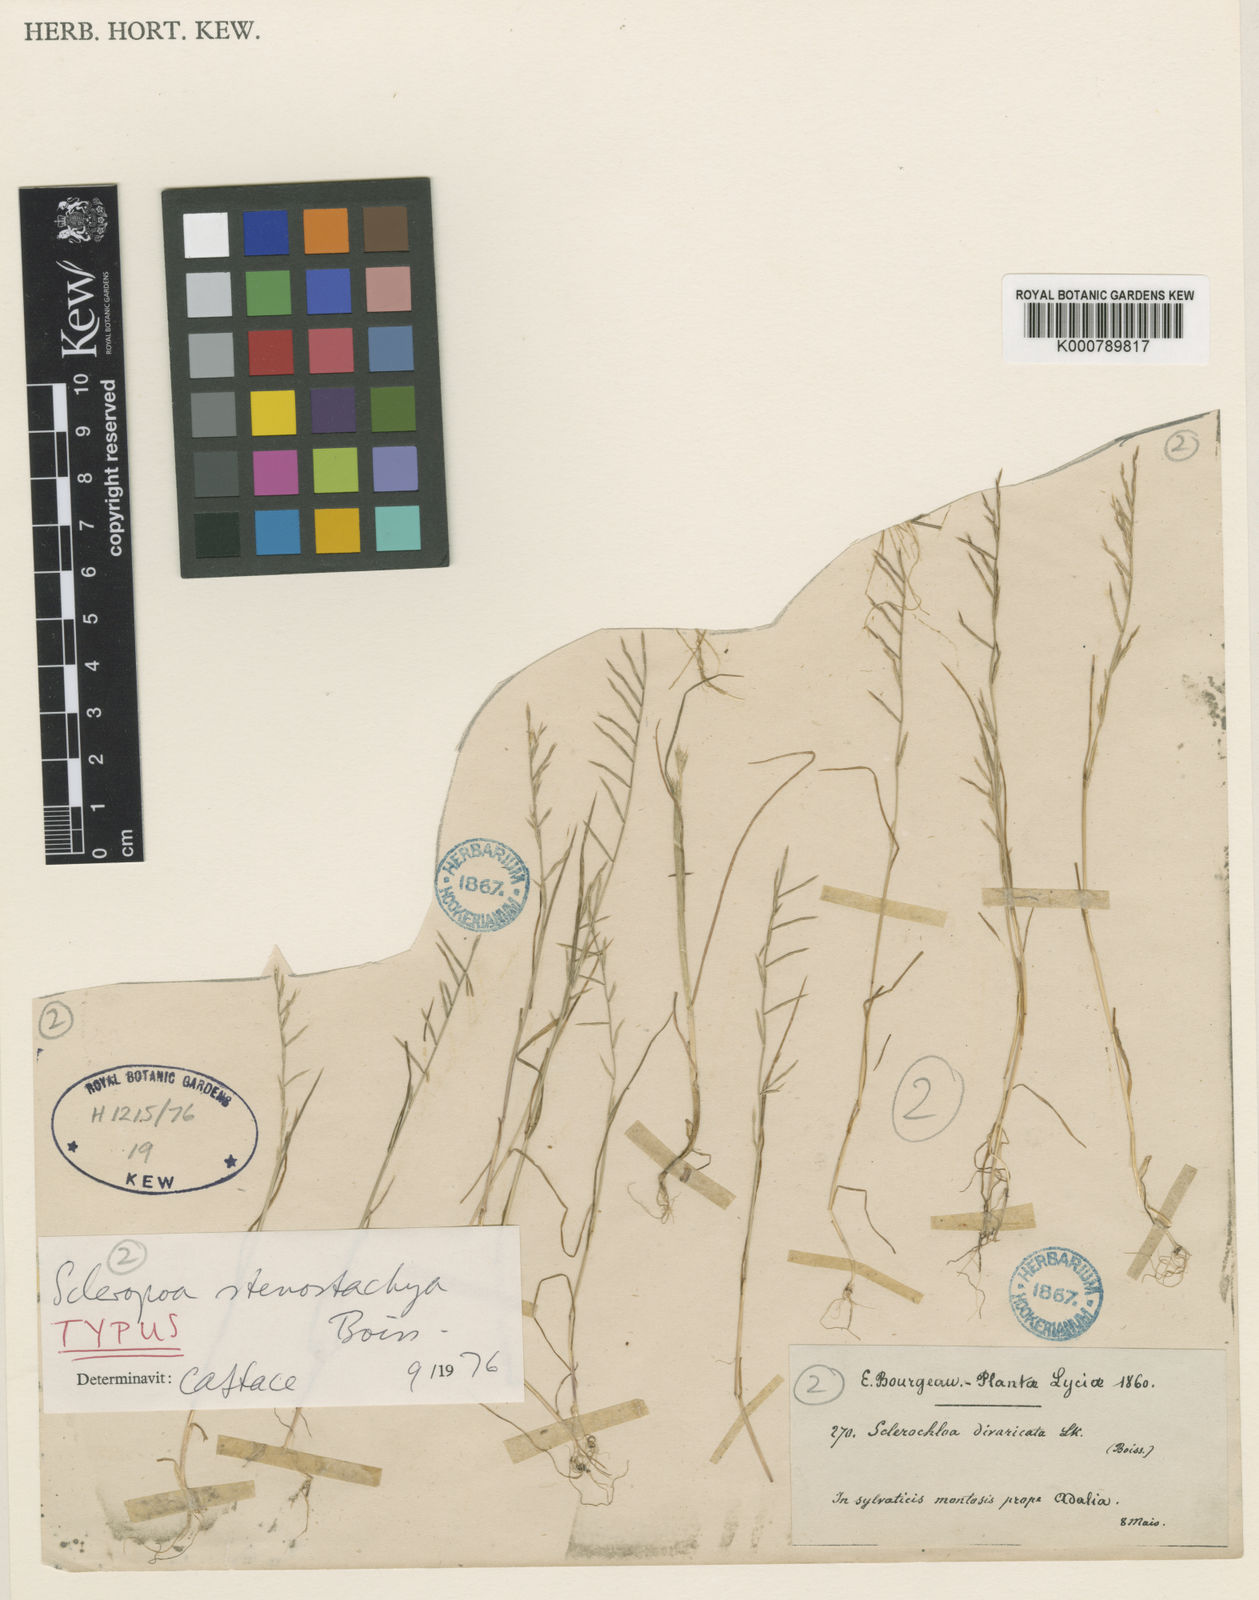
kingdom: Plantae
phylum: Tracheophyta
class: Liliopsida
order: Poales
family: Poaceae
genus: Cutandia
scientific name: Cutandia stenostachya
